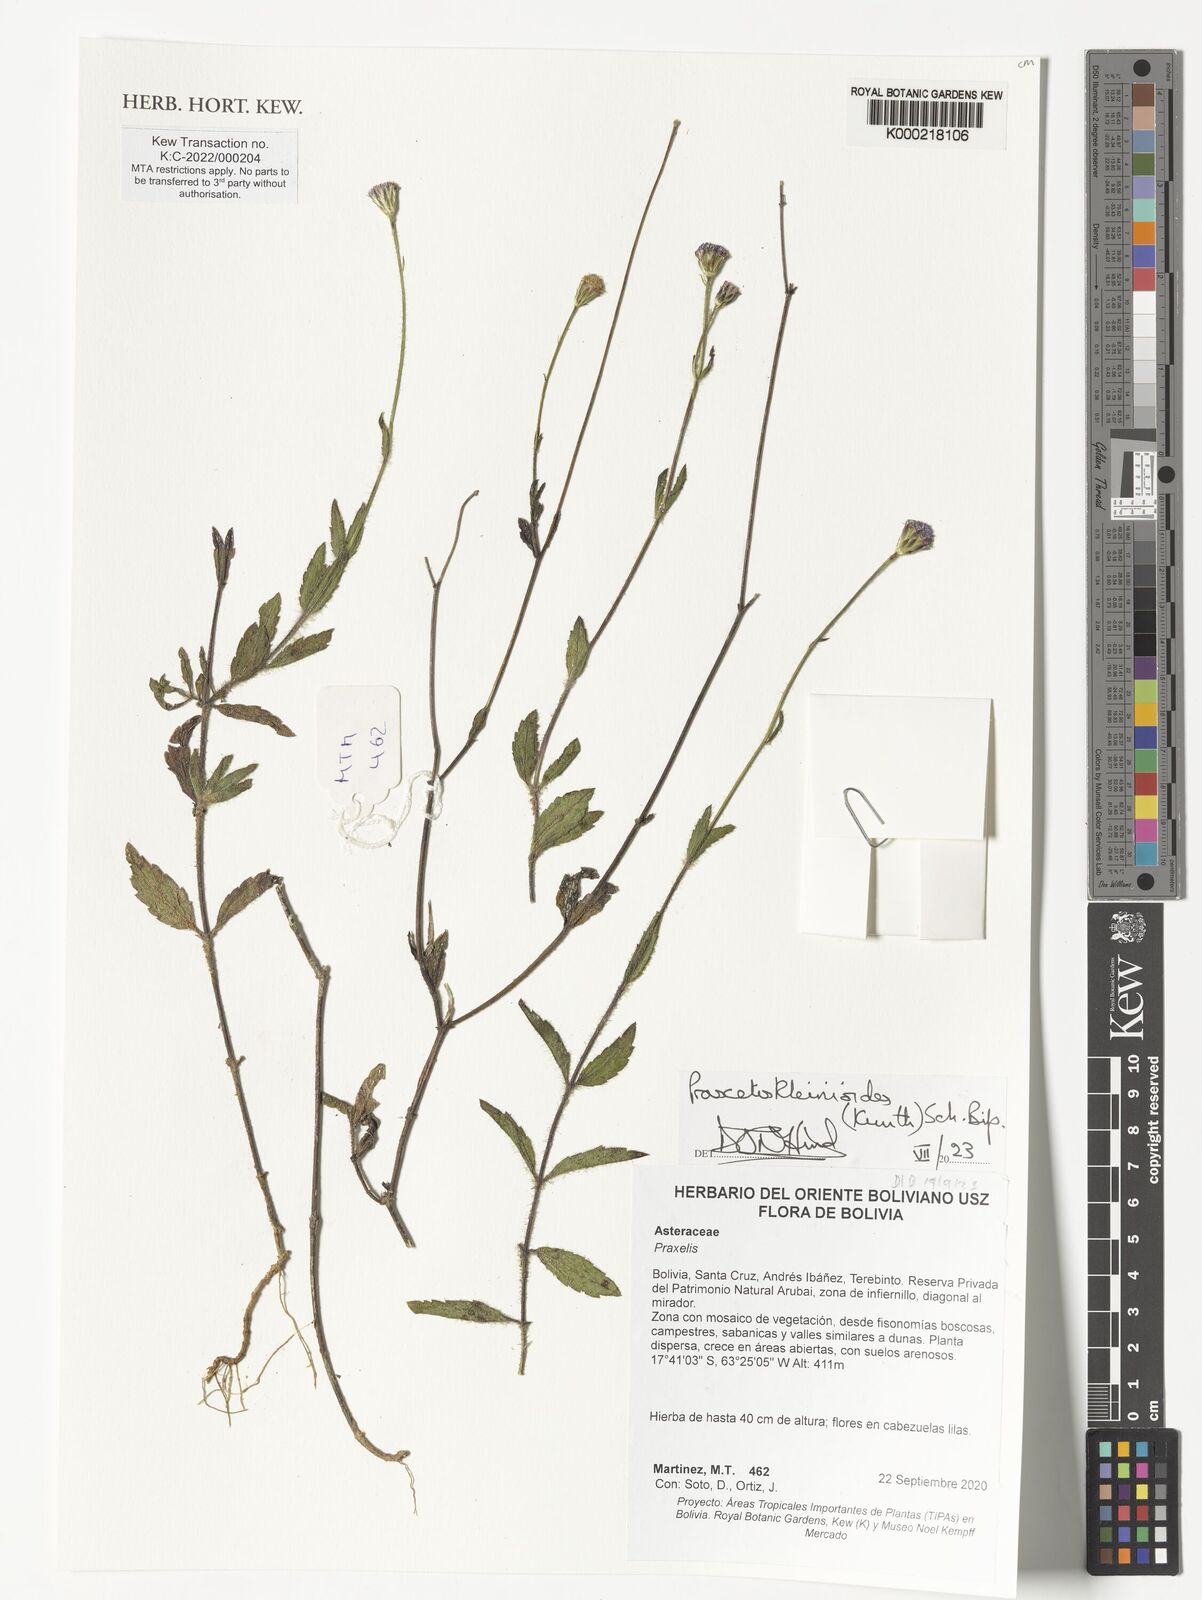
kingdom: Plantae
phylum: Tracheophyta
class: Magnoliopsida
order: Asterales
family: Asteraceae
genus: Praxelis
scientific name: Praxelis kleinioides
